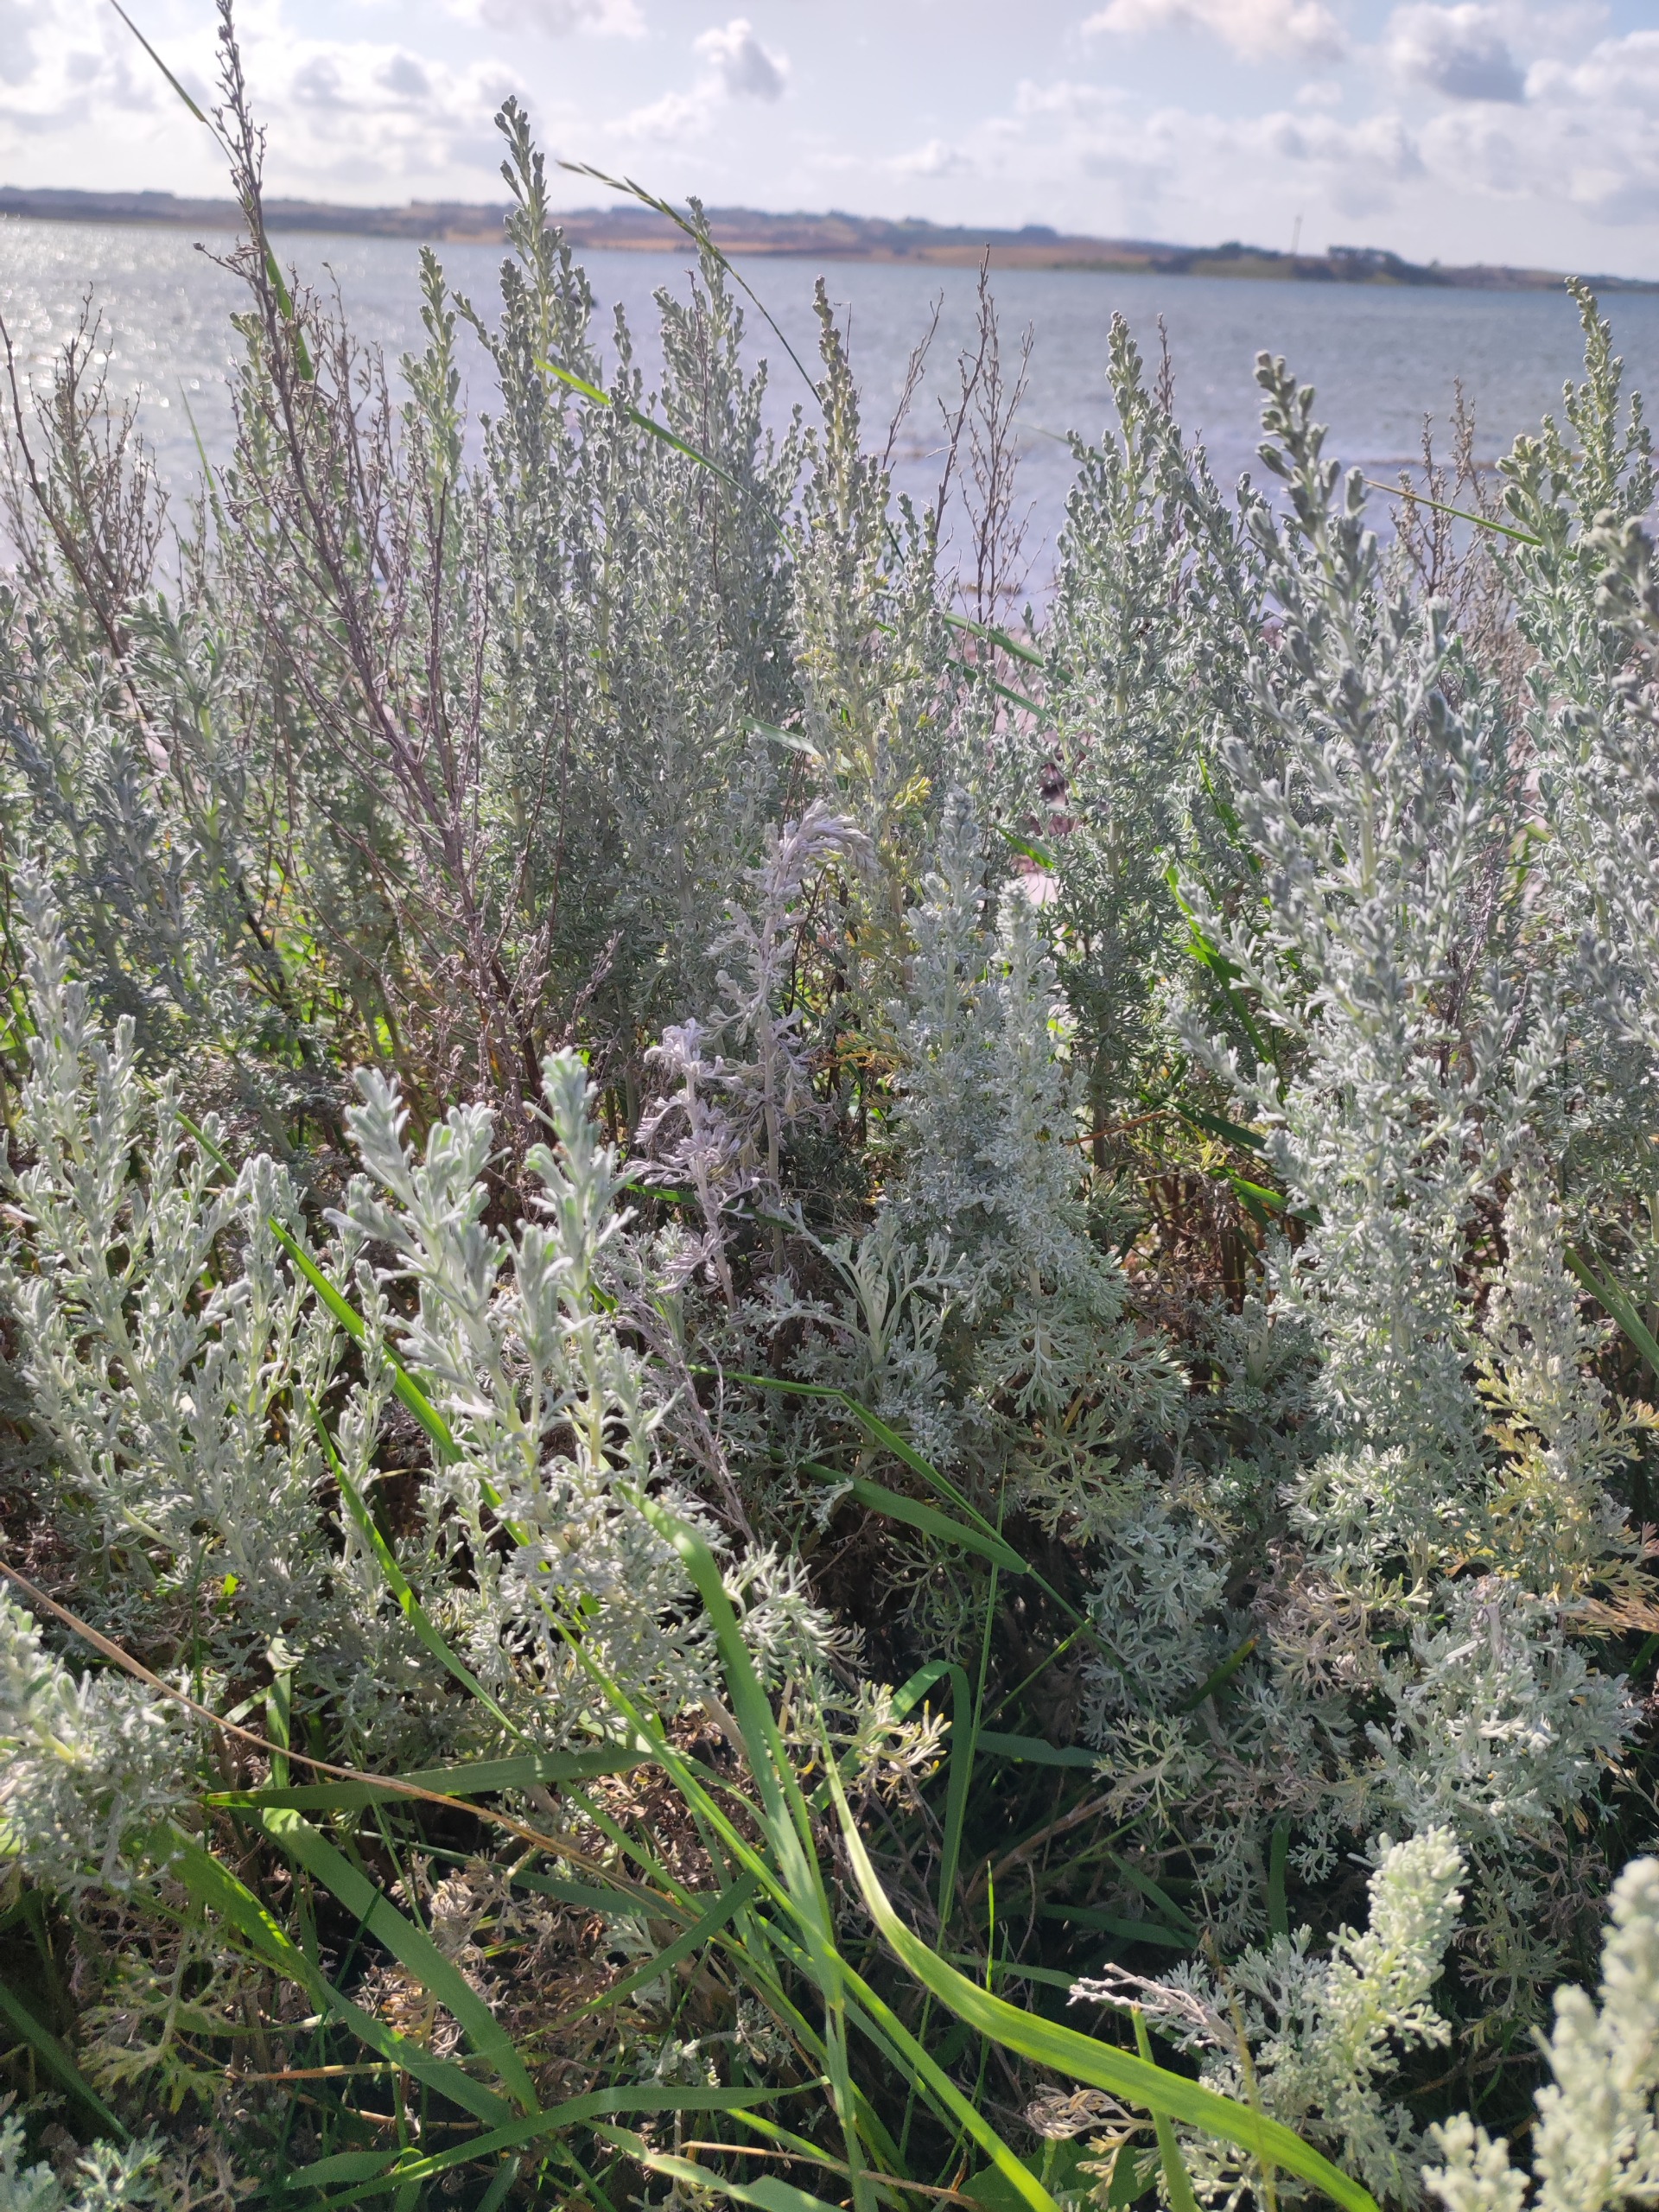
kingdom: Plantae
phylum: Tracheophyta
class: Magnoliopsida
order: Asterales
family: Asteraceae
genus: Artemisia
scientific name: Artemisia maritima
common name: Strandmalurt
